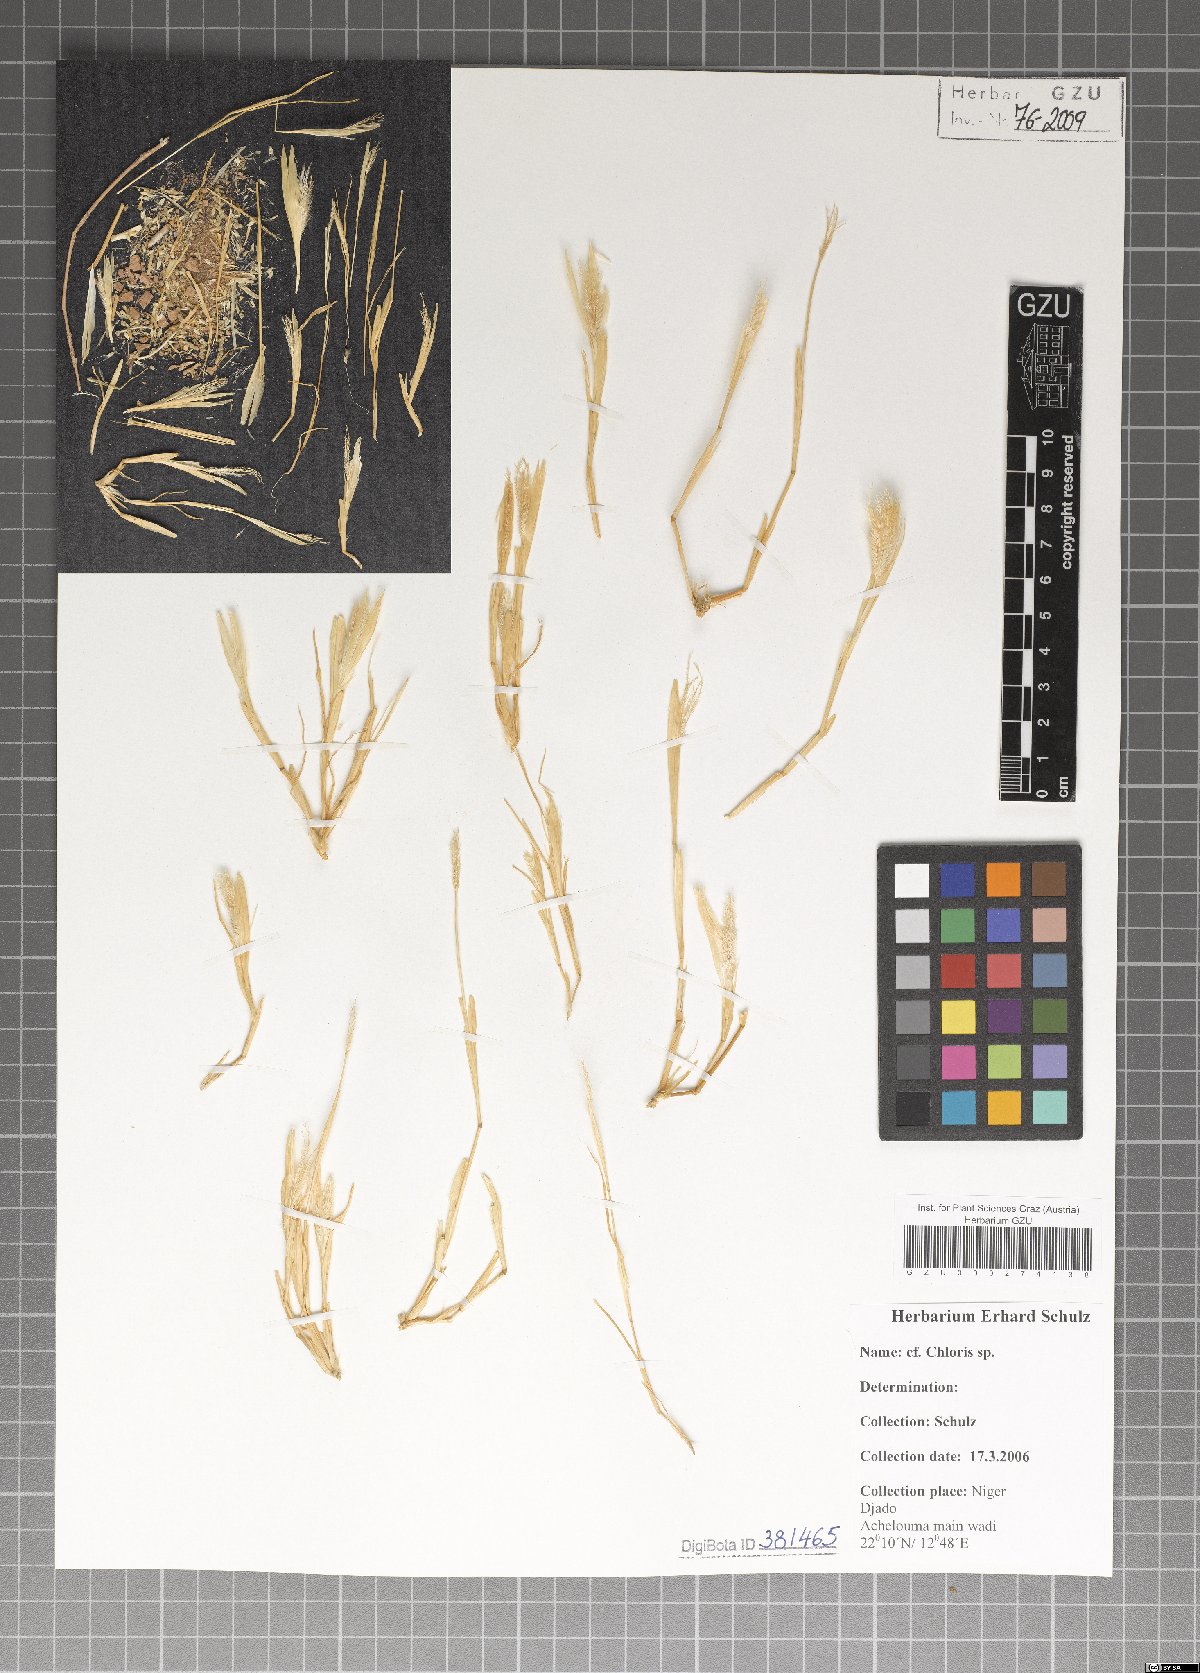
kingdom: Plantae
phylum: Tracheophyta
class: Liliopsida
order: Poales
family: Poaceae
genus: Chloris
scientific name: Chloris
